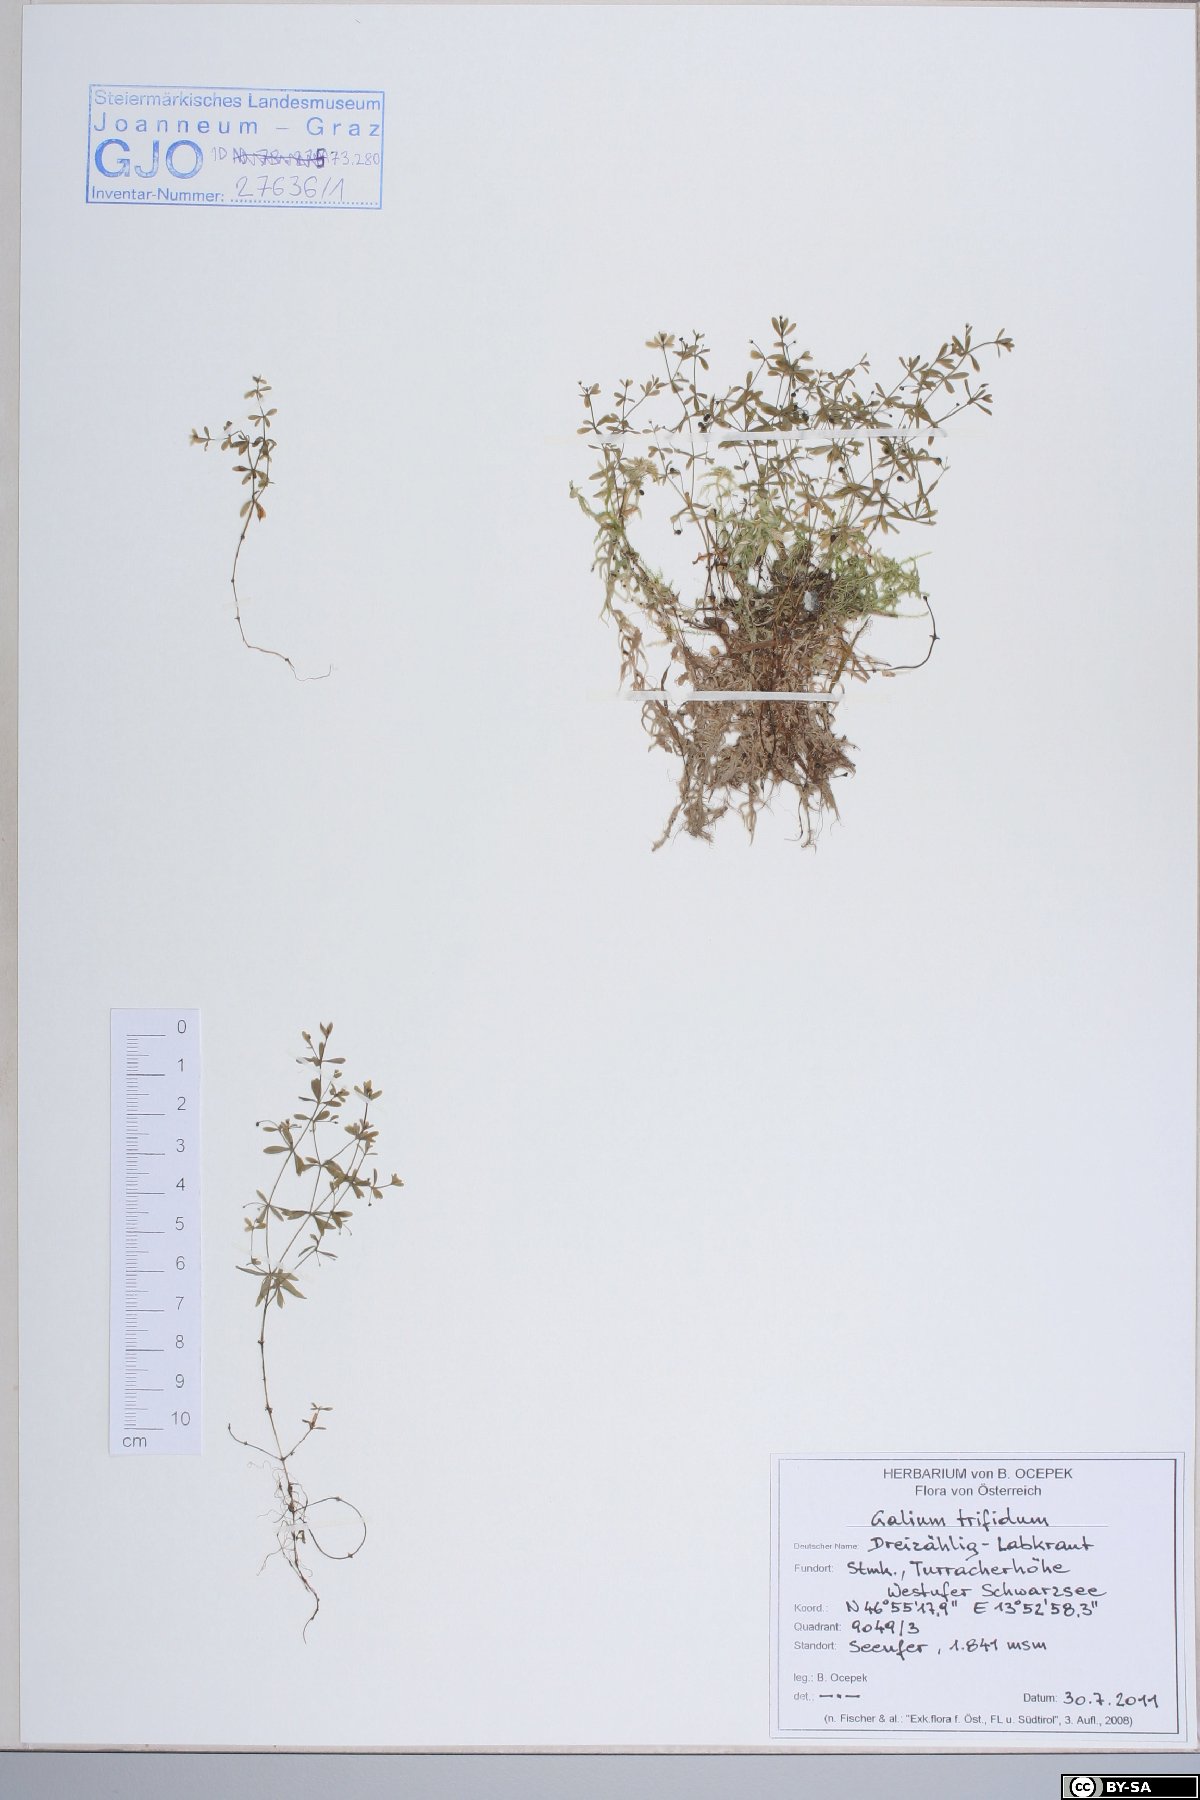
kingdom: Plantae
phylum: Tracheophyta
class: Magnoliopsida
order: Gentianales
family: Rubiaceae
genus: Galium
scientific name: Galium trifidum
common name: Small bedstraw
